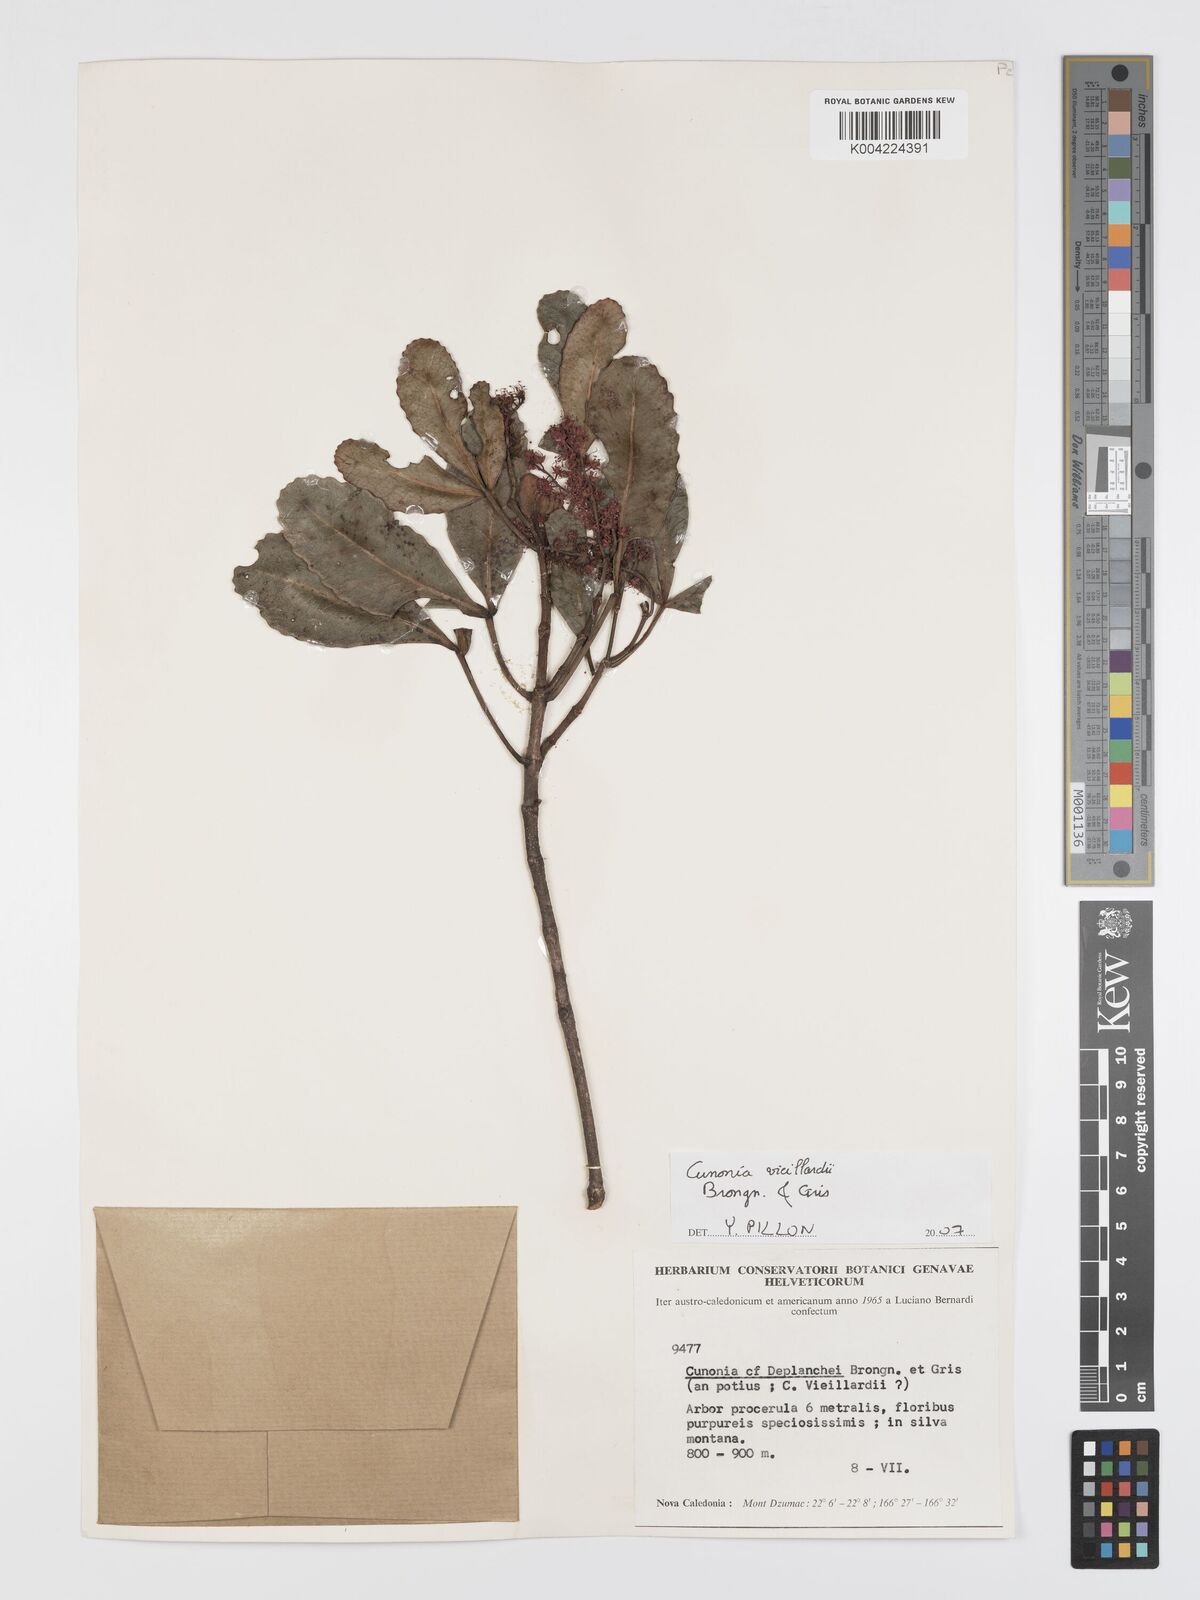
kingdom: Plantae
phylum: Tracheophyta
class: Magnoliopsida
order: Oxalidales
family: Cunoniaceae
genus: Cunonia
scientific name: Cunonia vieillardii
